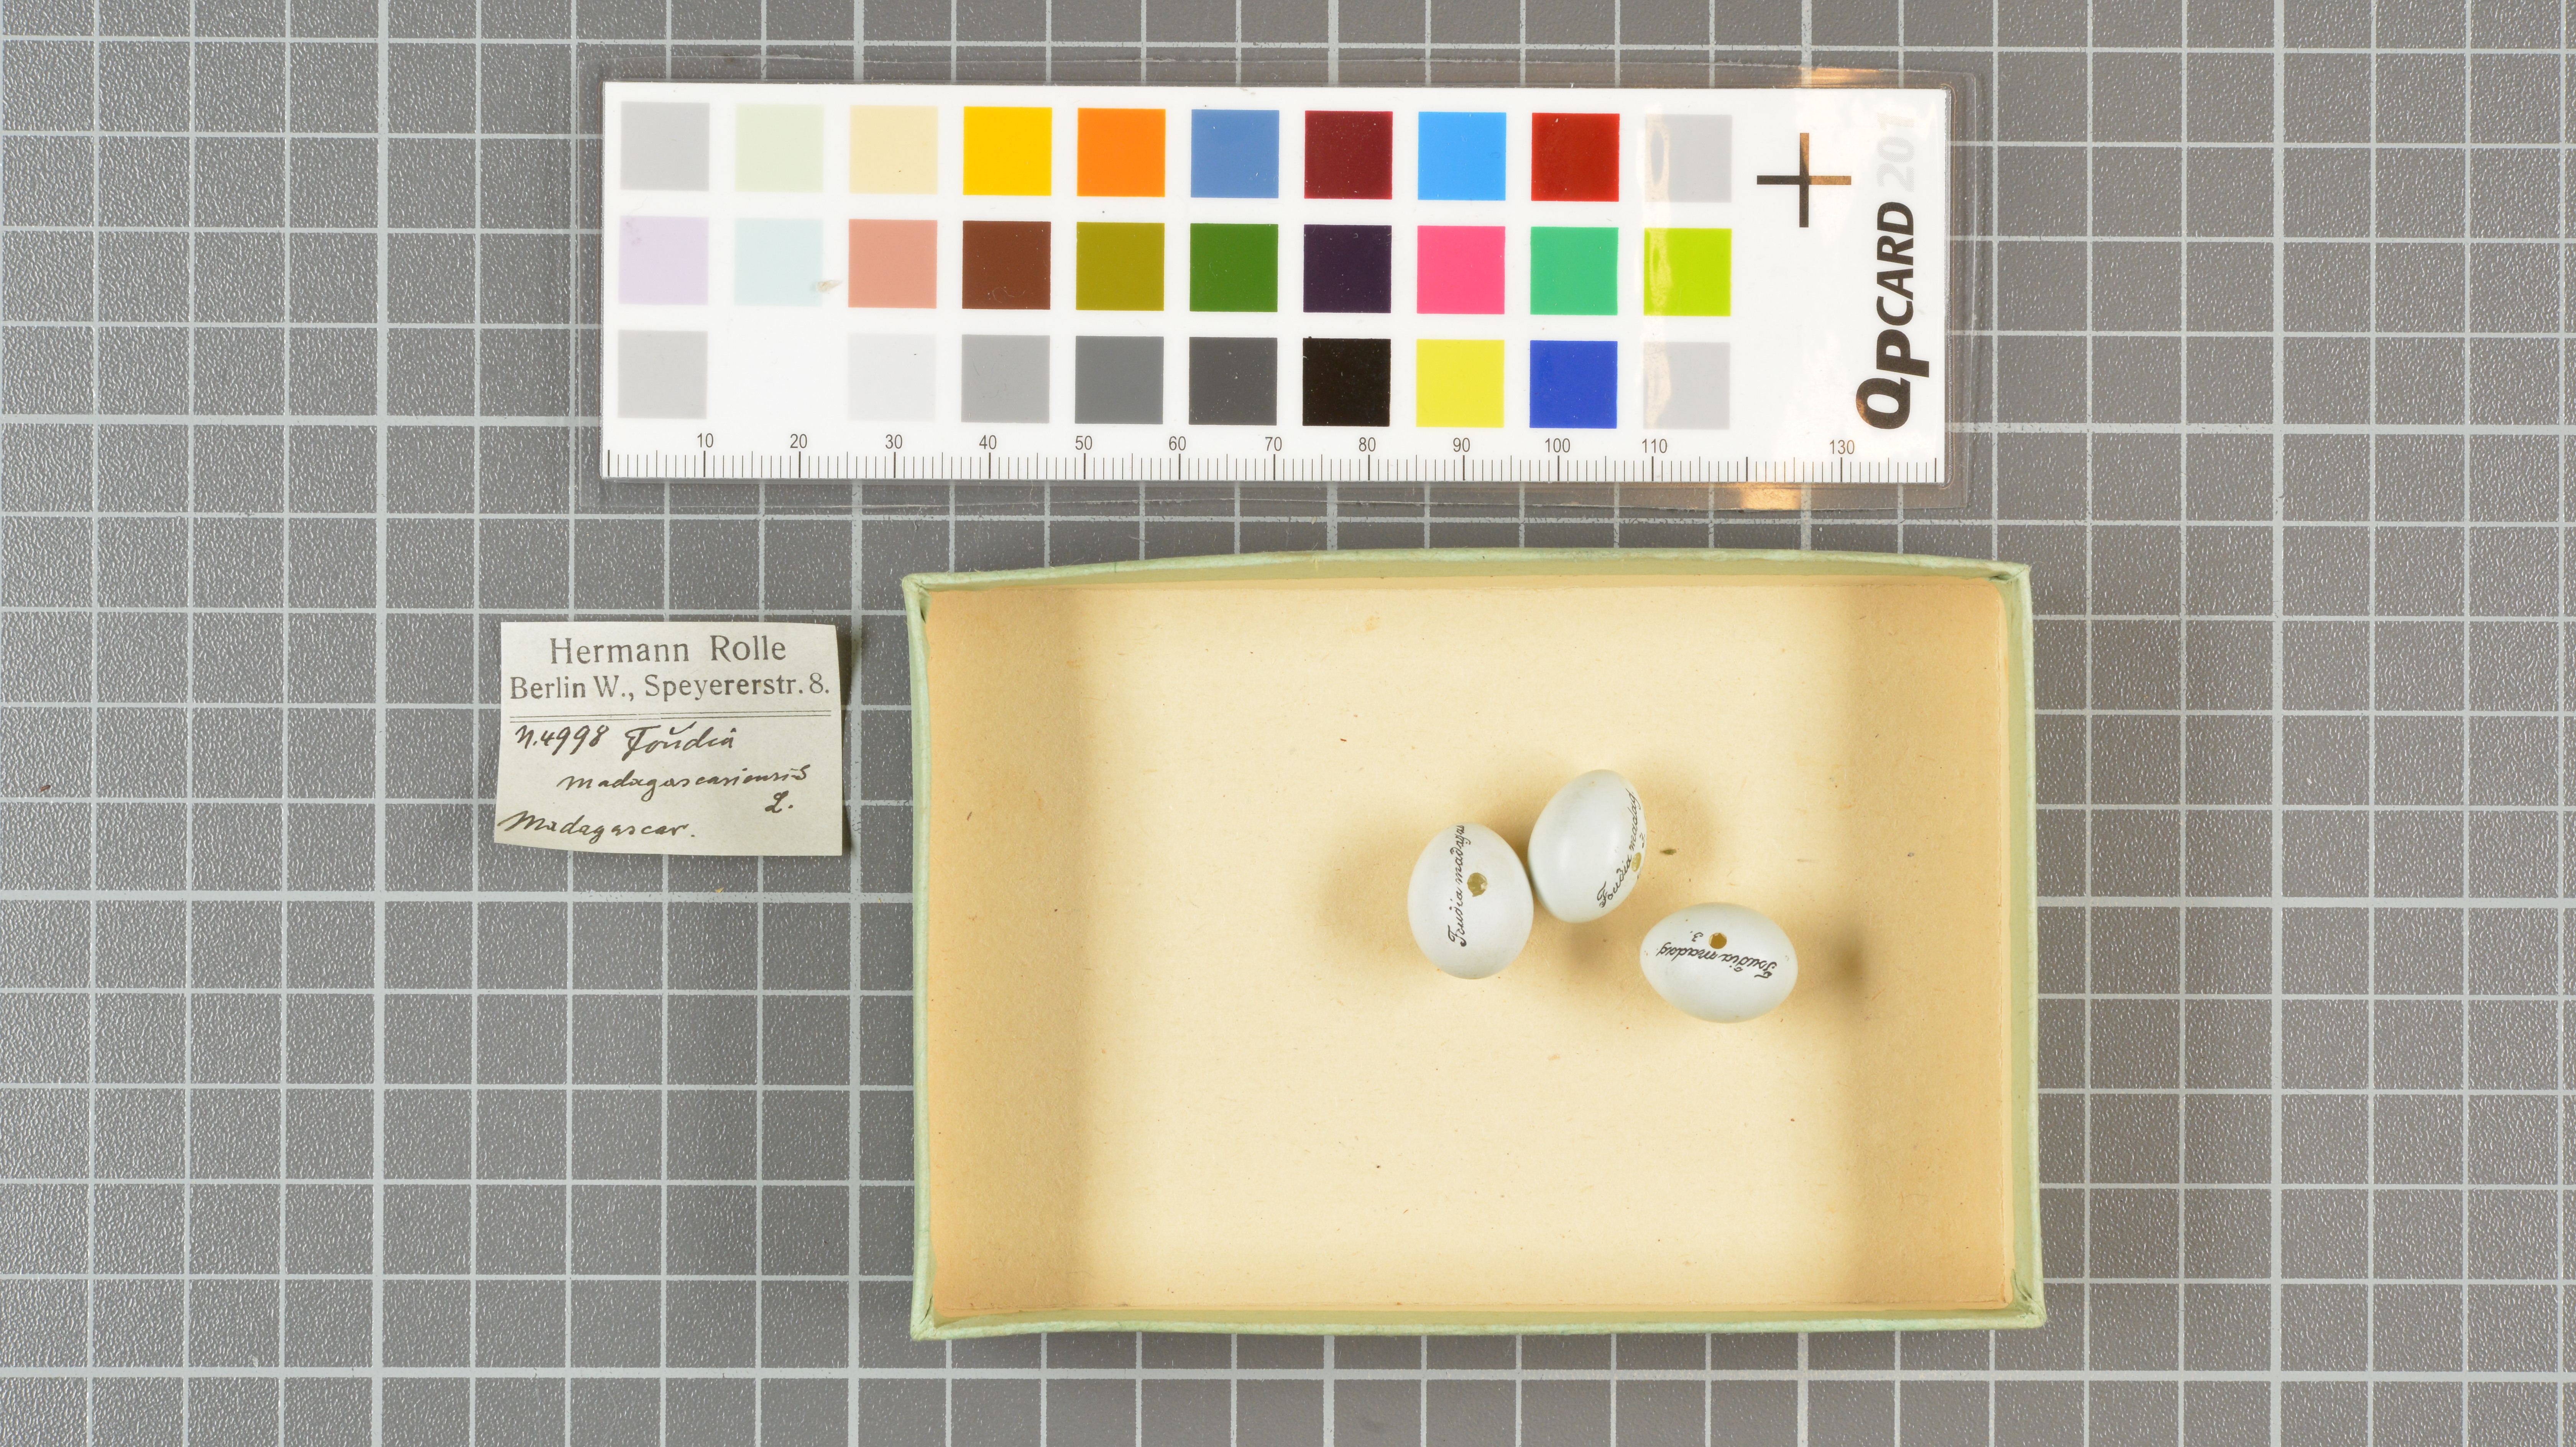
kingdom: Animalia
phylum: Chordata
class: Aves
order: Passeriformes
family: Ploceidae
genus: Foudia
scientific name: Foudia madagascariensis
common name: Red fody
